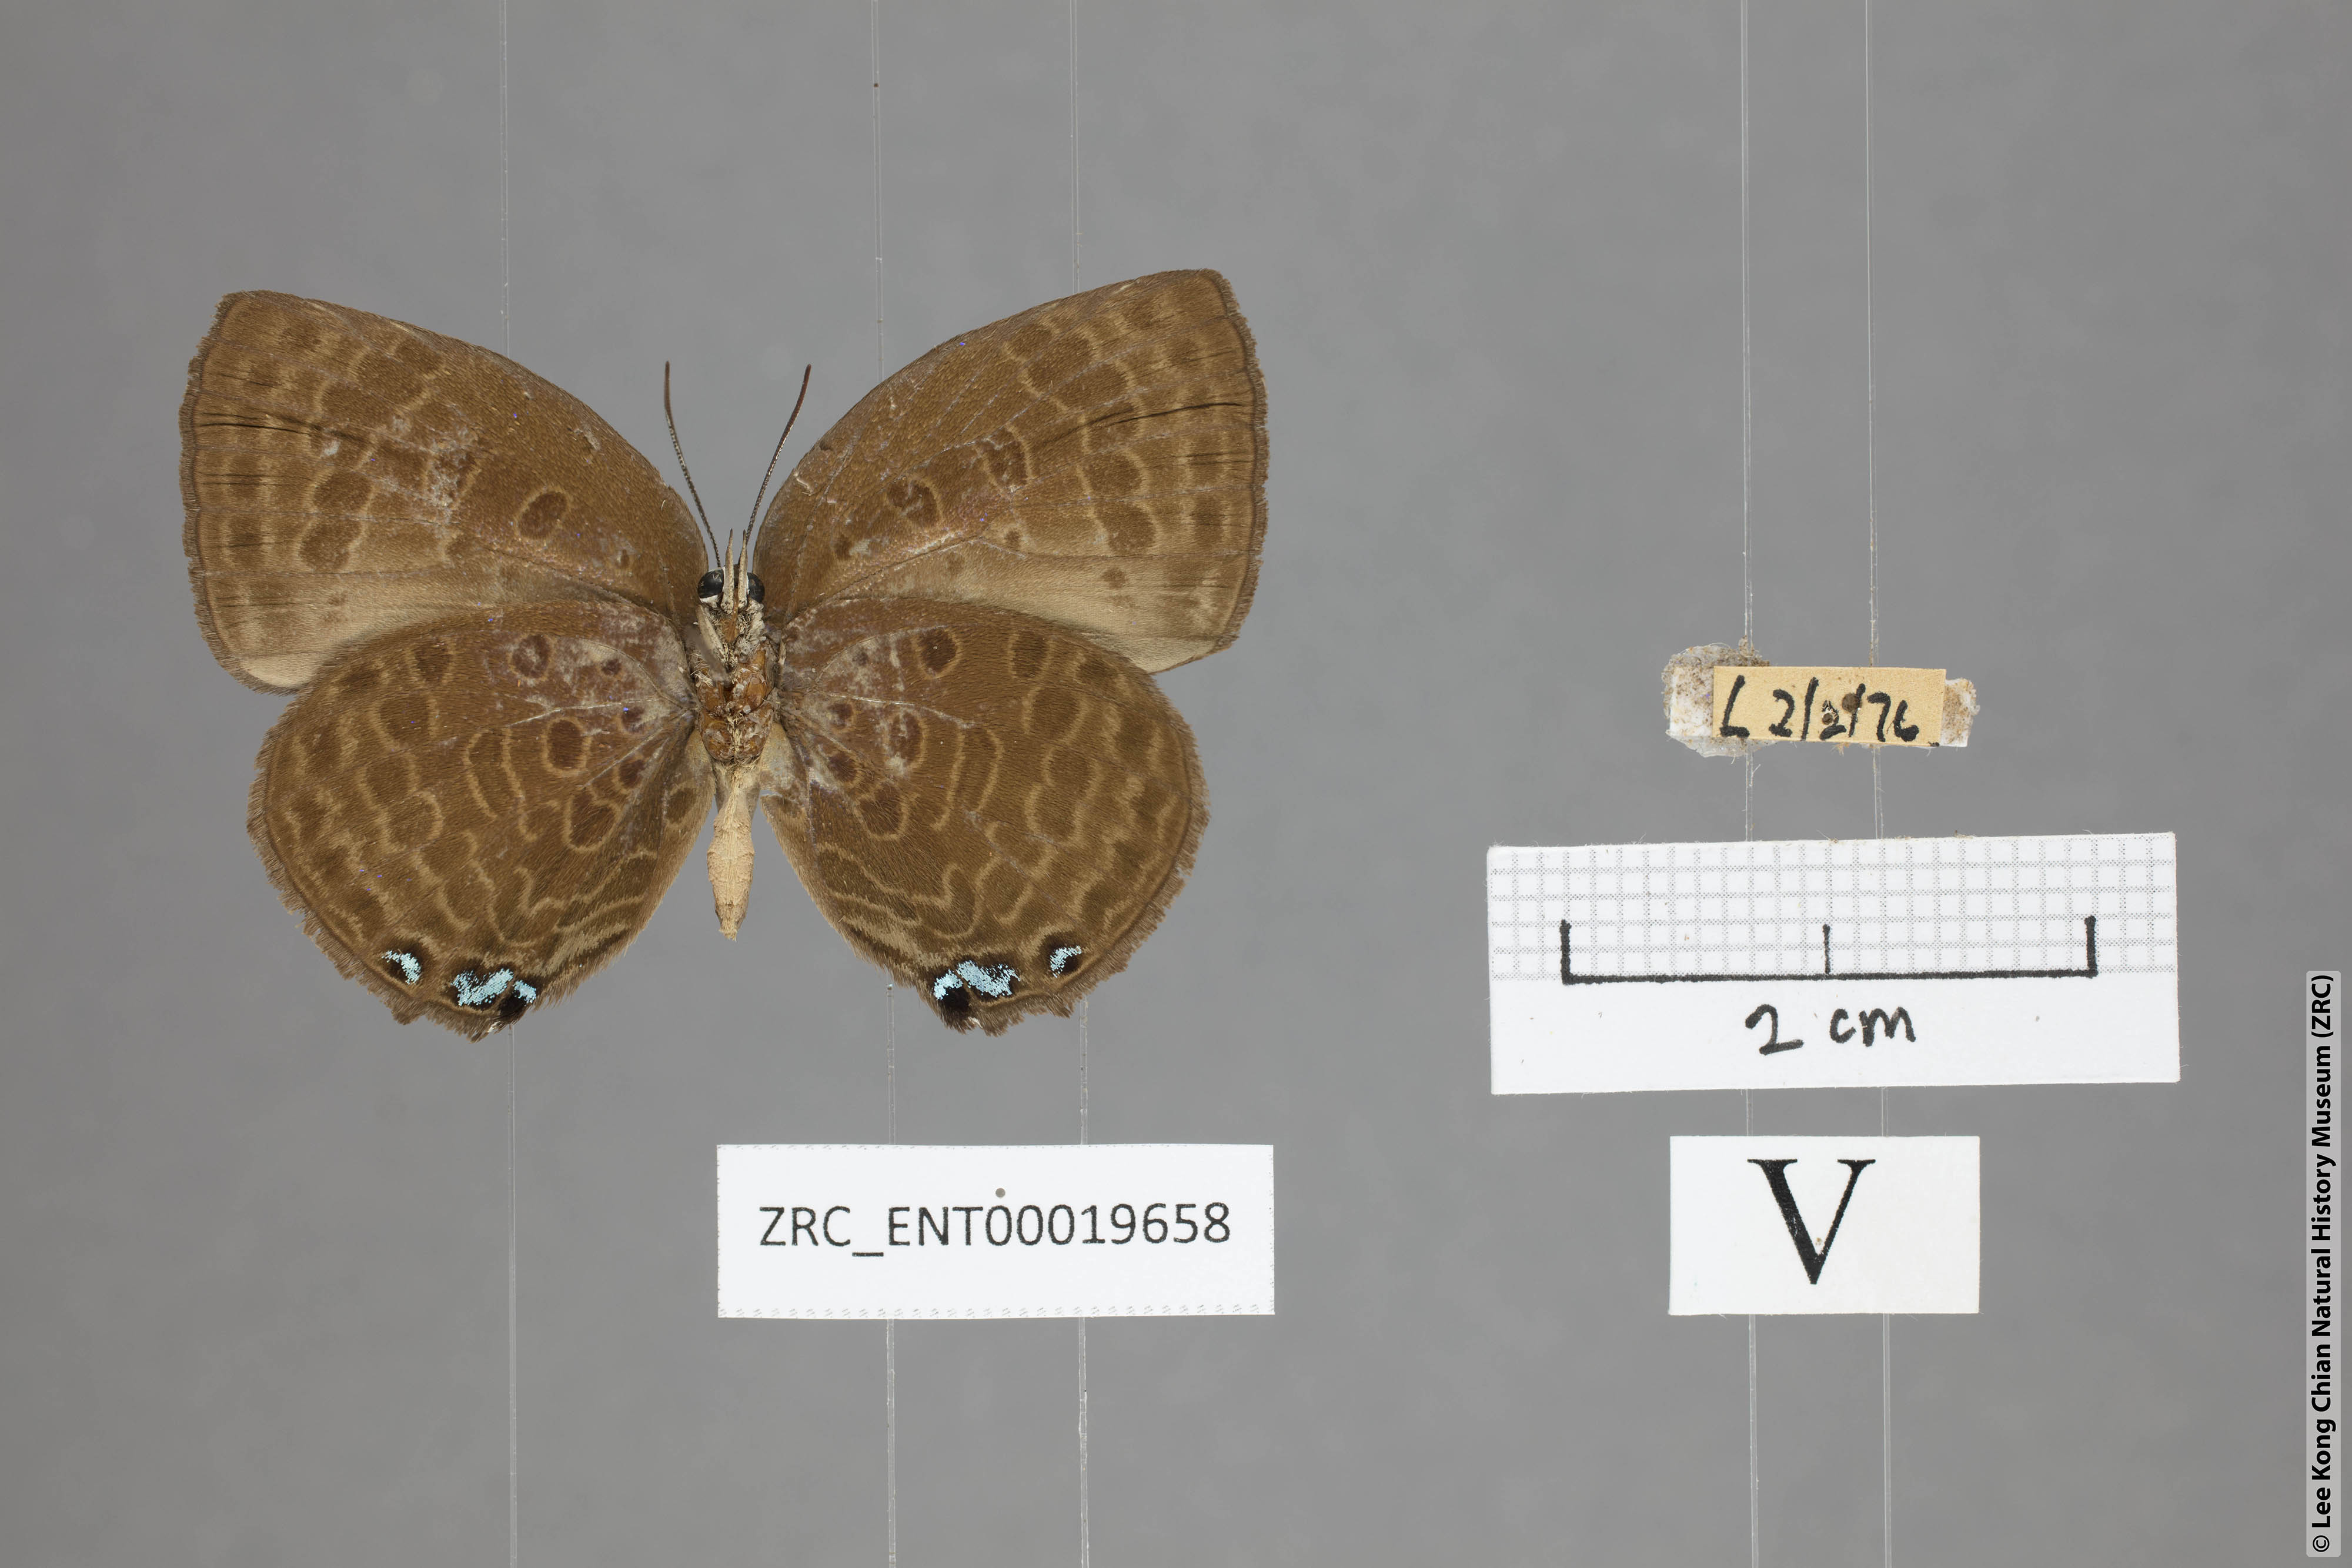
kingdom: Animalia
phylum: Arthropoda
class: Insecta
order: Lepidoptera
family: Lycaenidae
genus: Arhopala
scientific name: Arhopala moolaina
